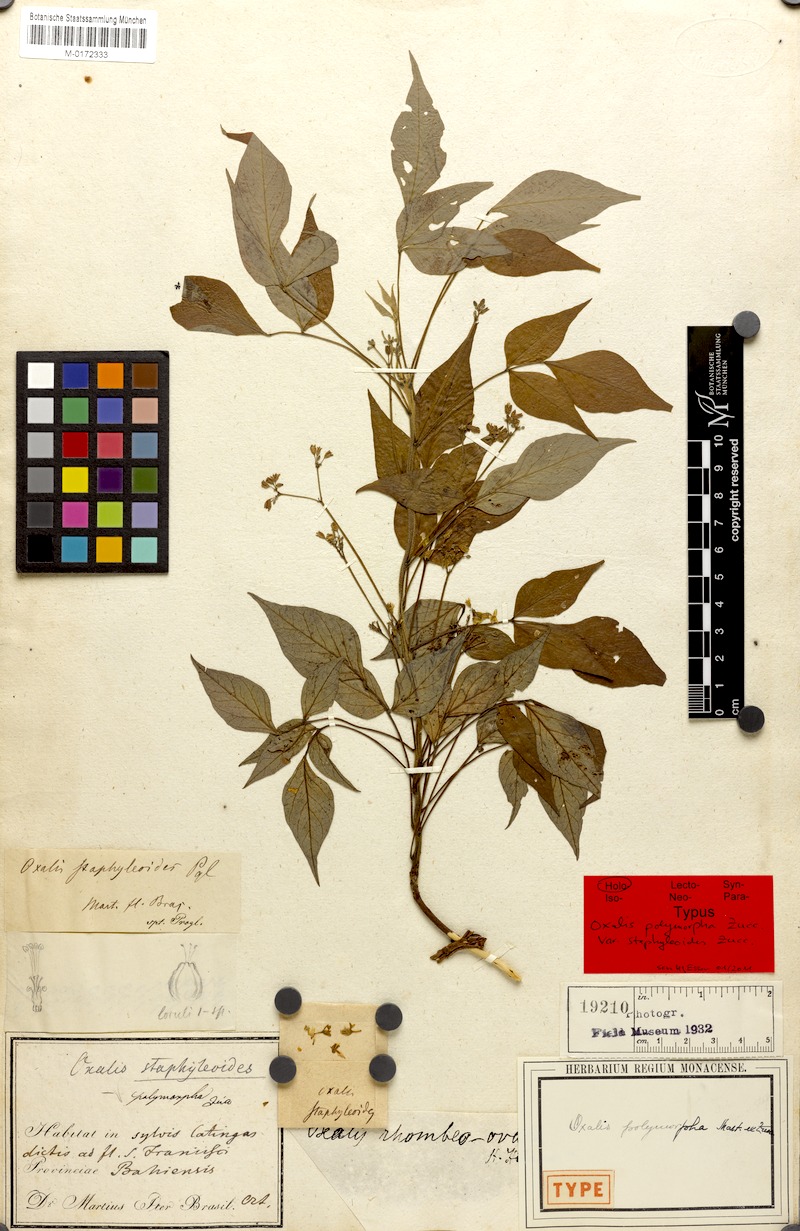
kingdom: Plantae
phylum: Tracheophyta
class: Magnoliopsida
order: Oxalidales
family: Oxalidaceae
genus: Oxalis
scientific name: Oxalis polymorpha
